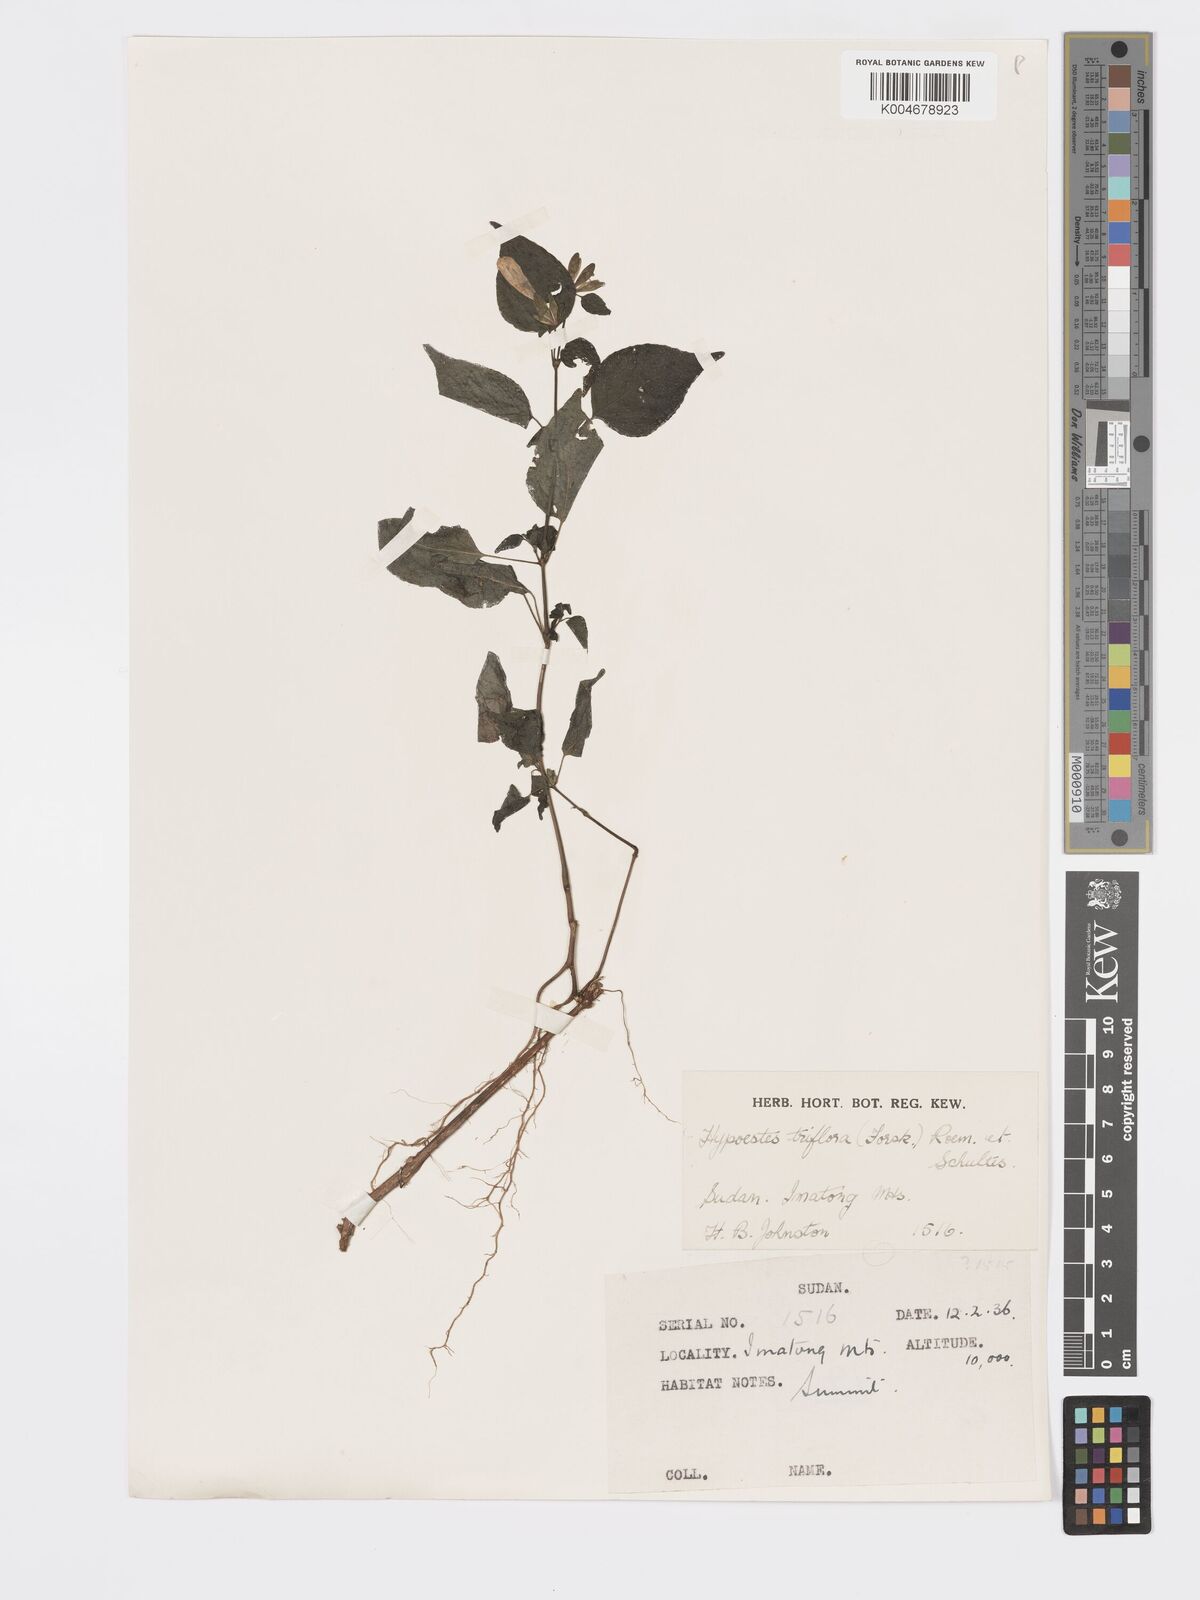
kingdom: Plantae
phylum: Tracheophyta
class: Magnoliopsida
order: Lamiales
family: Acanthaceae
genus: Hypoestes
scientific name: Hypoestes triflora
